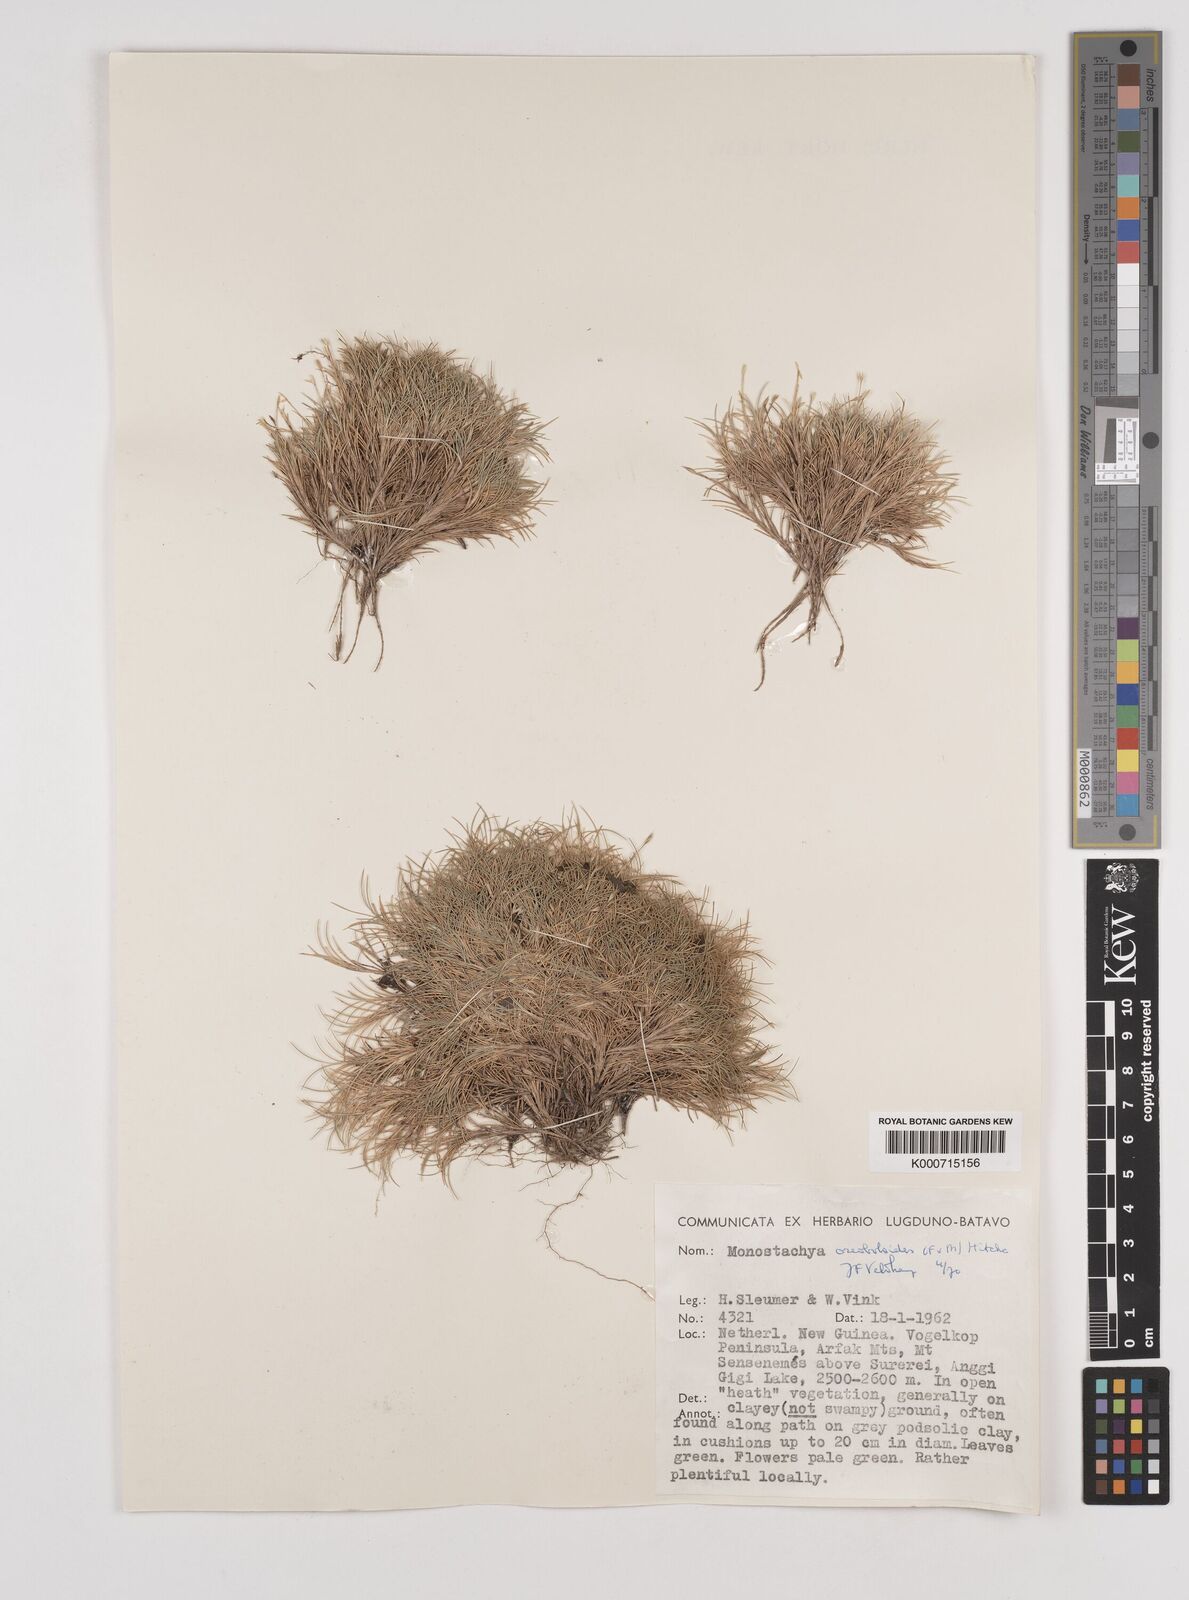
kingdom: Plantae
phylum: Tracheophyta
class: Liliopsida
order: Poales
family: Poaceae
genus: Rytidosperma
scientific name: Rytidosperma oreoboloides
